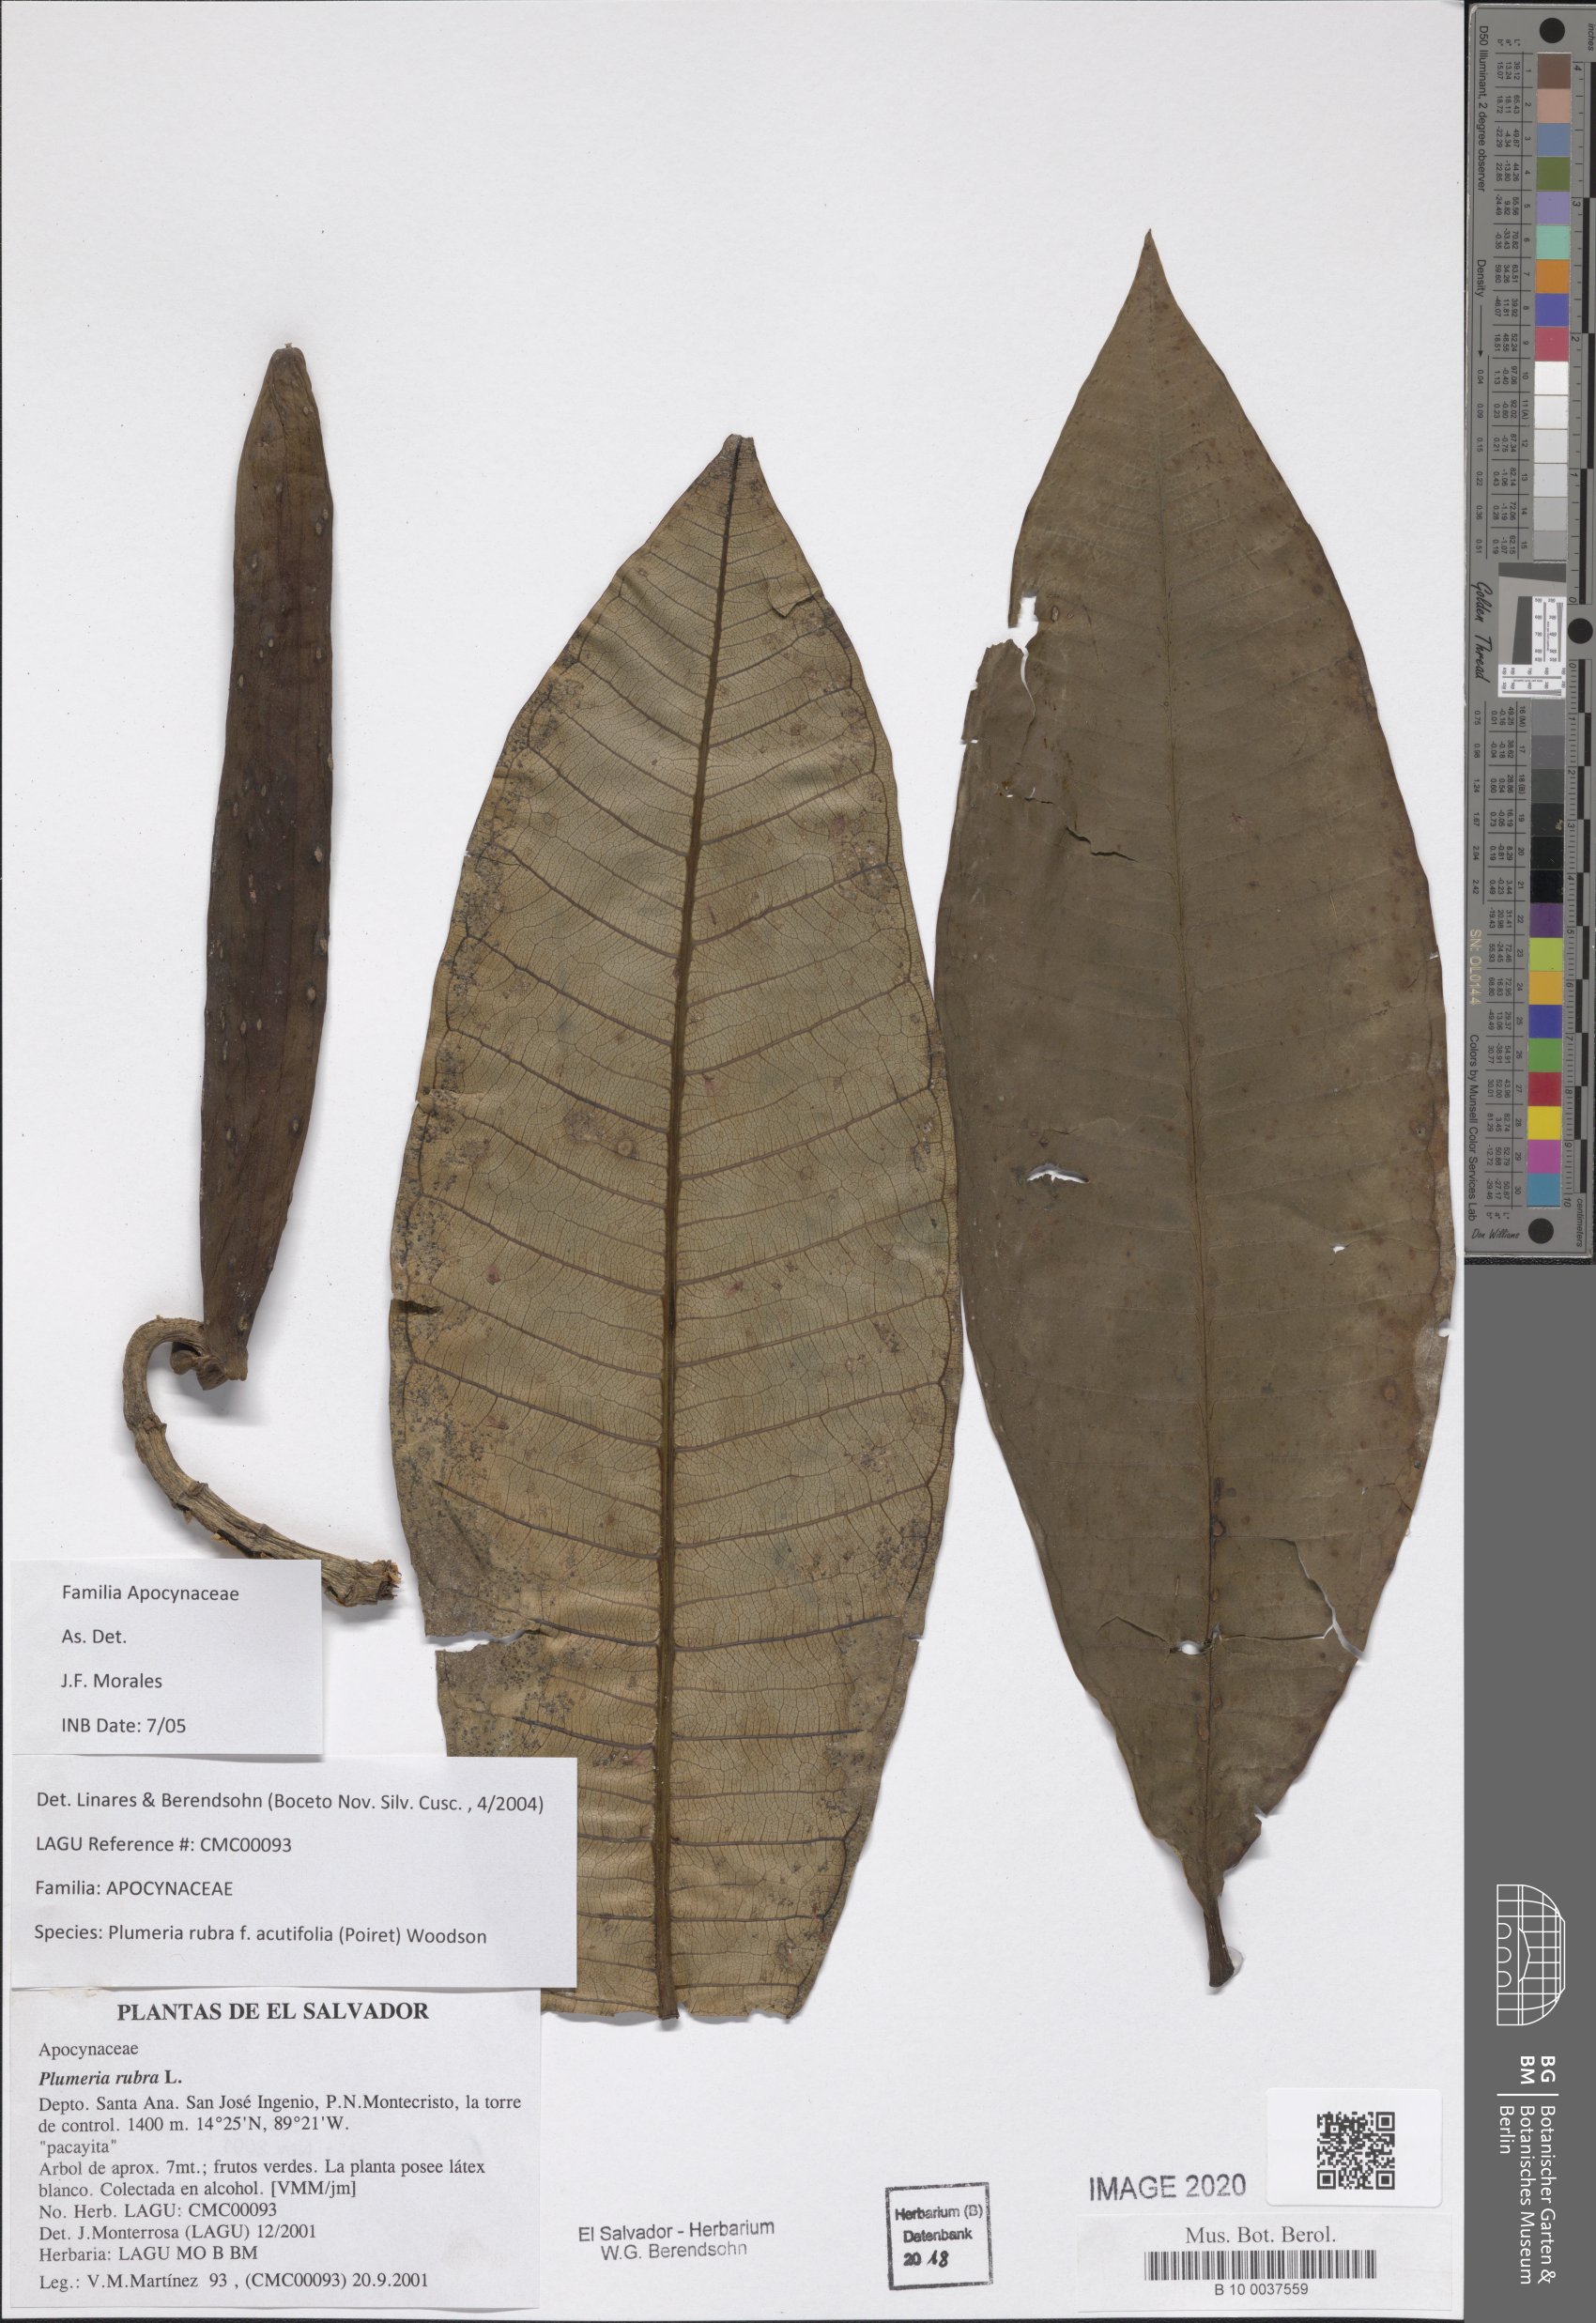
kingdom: Plantae
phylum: Tracheophyta
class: Magnoliopsida
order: Gentianales
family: Apocynaceae
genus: Plumeria
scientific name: Plumeria rubra
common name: Pagoda-tree
